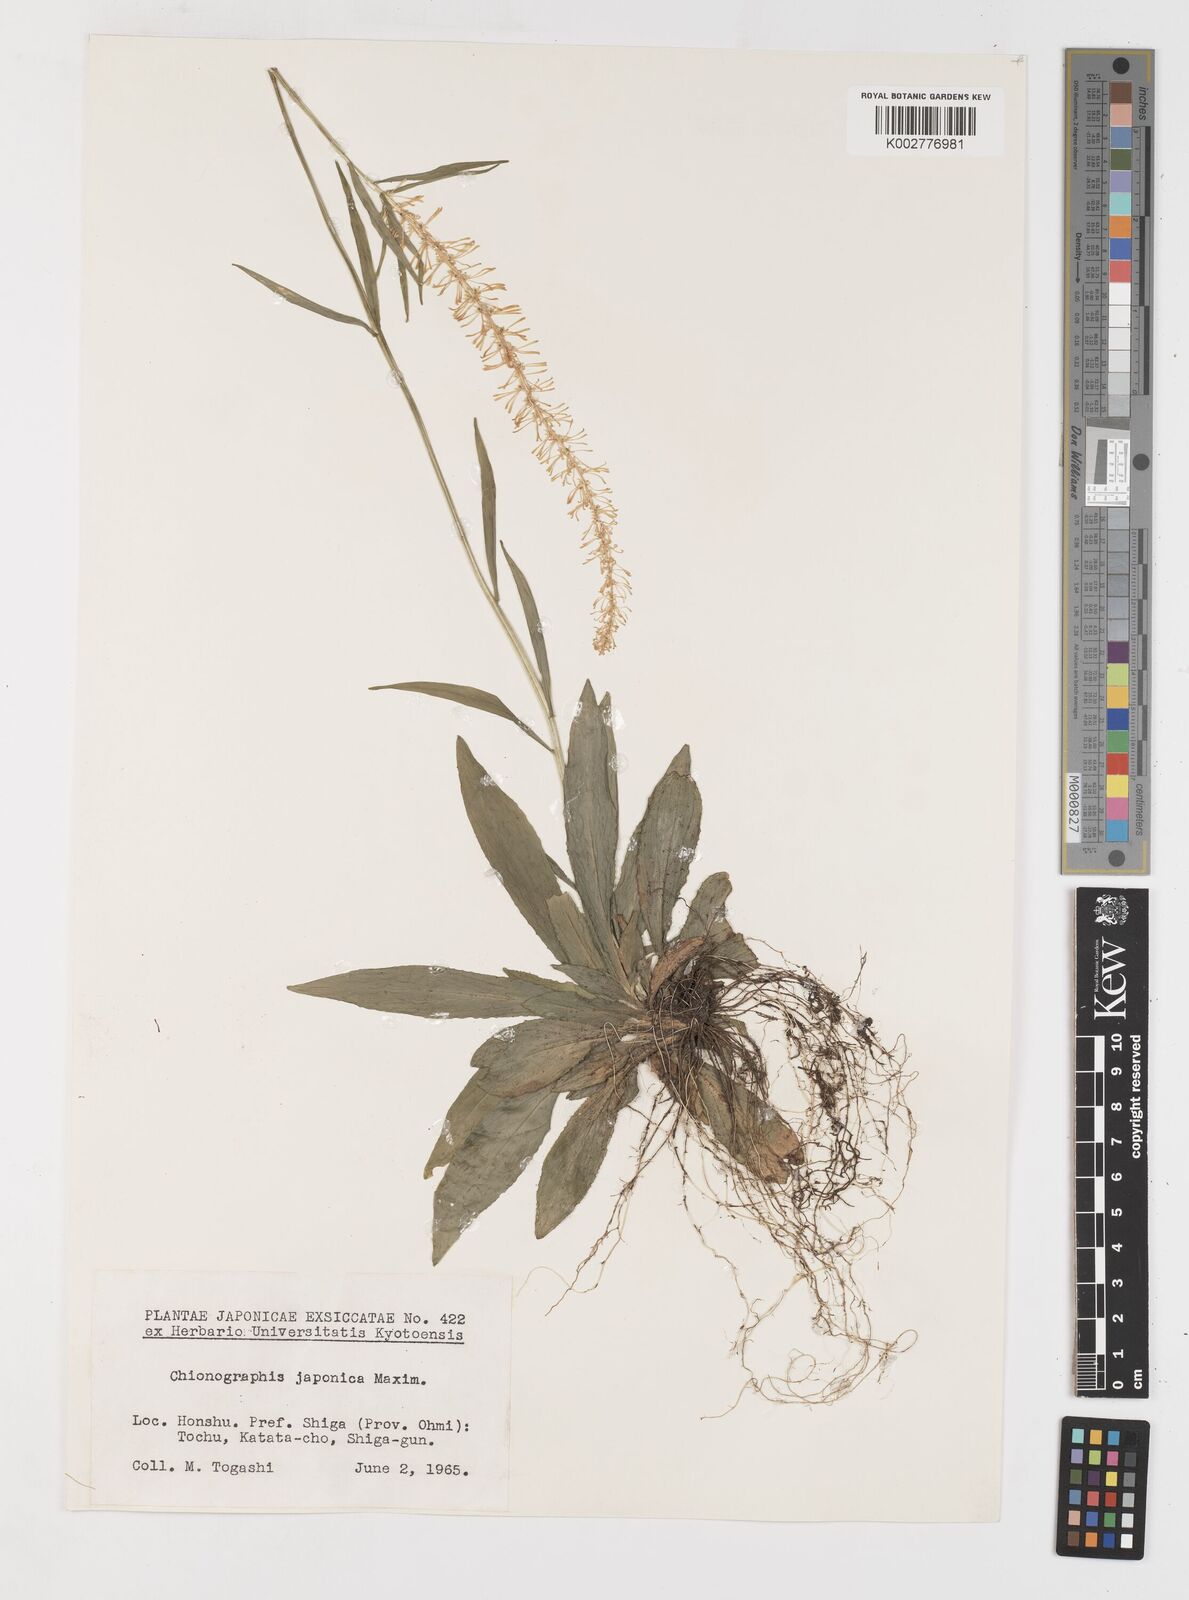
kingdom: Plantae
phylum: Tracheophyta
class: Liliopsida
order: Liliales
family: Melanthiaceae
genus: Chamaelirium
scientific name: Chamaelirium japonicum
